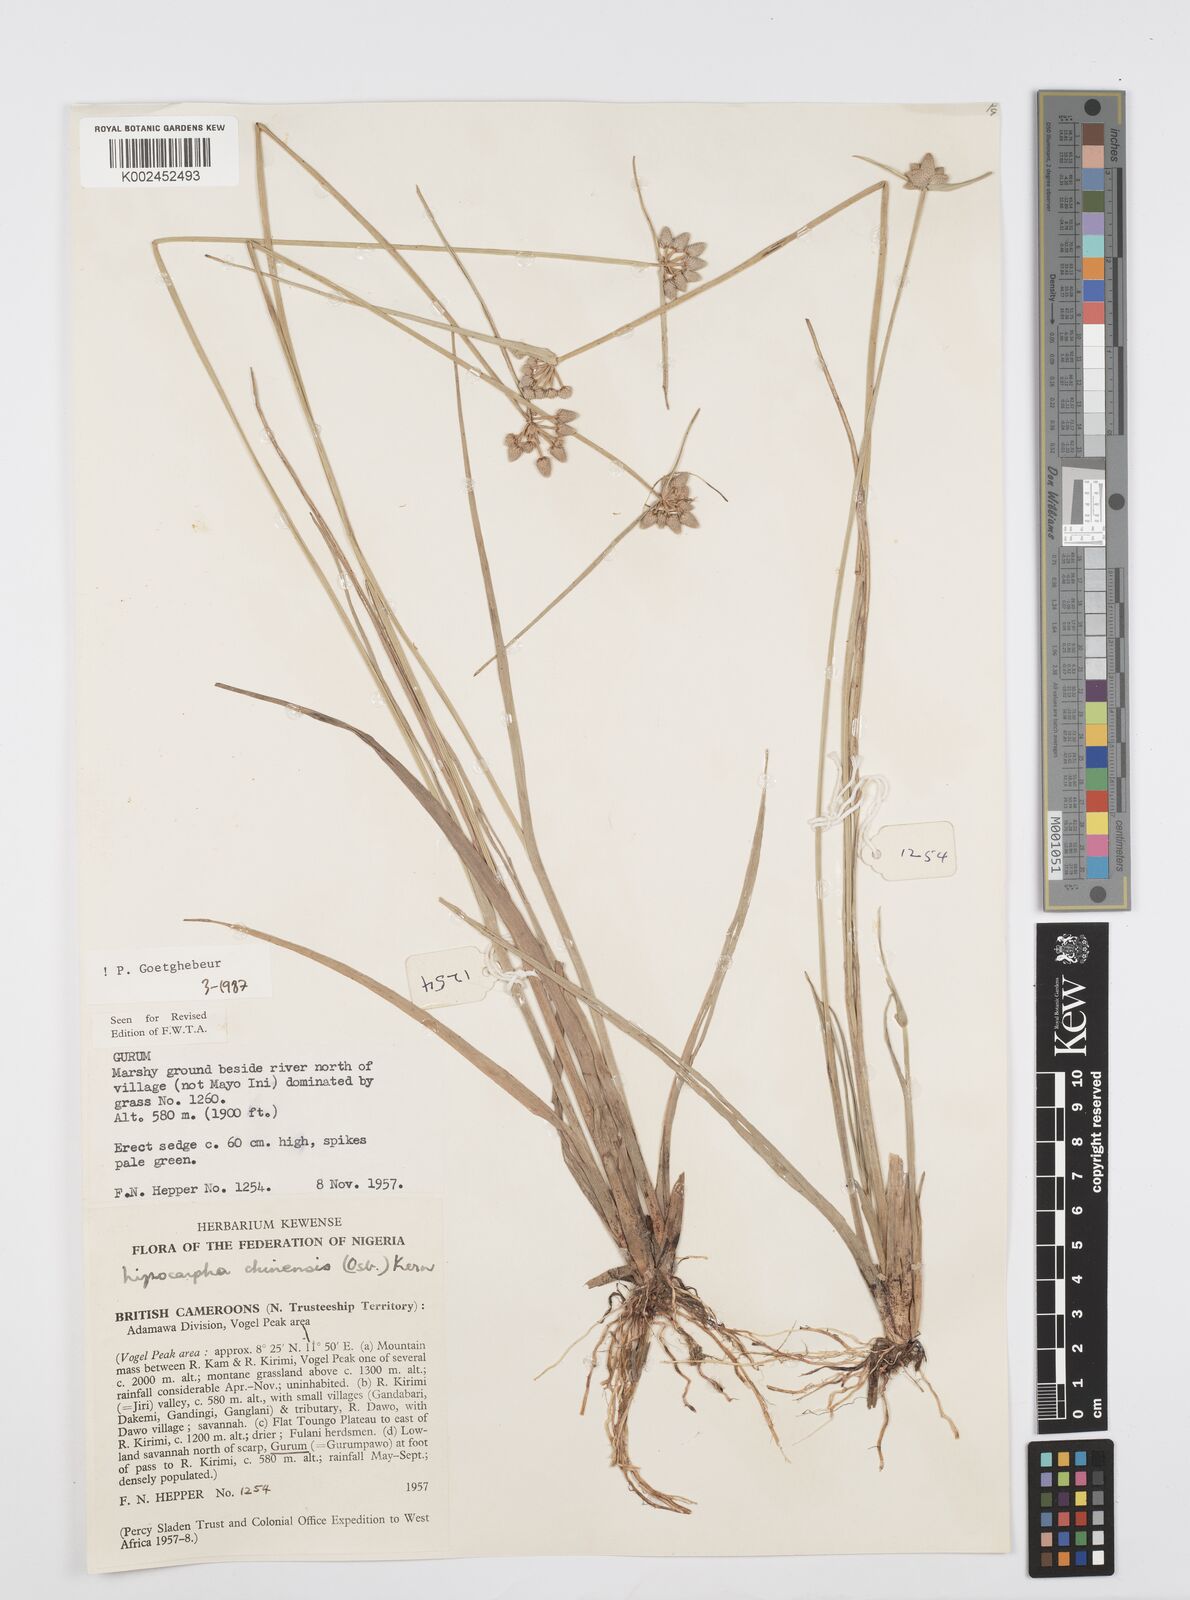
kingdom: Plantae
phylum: Tracheophyta
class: Liliopsida
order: Poales
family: Cyperaceae
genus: Cyperus
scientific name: Cyperus albescens
